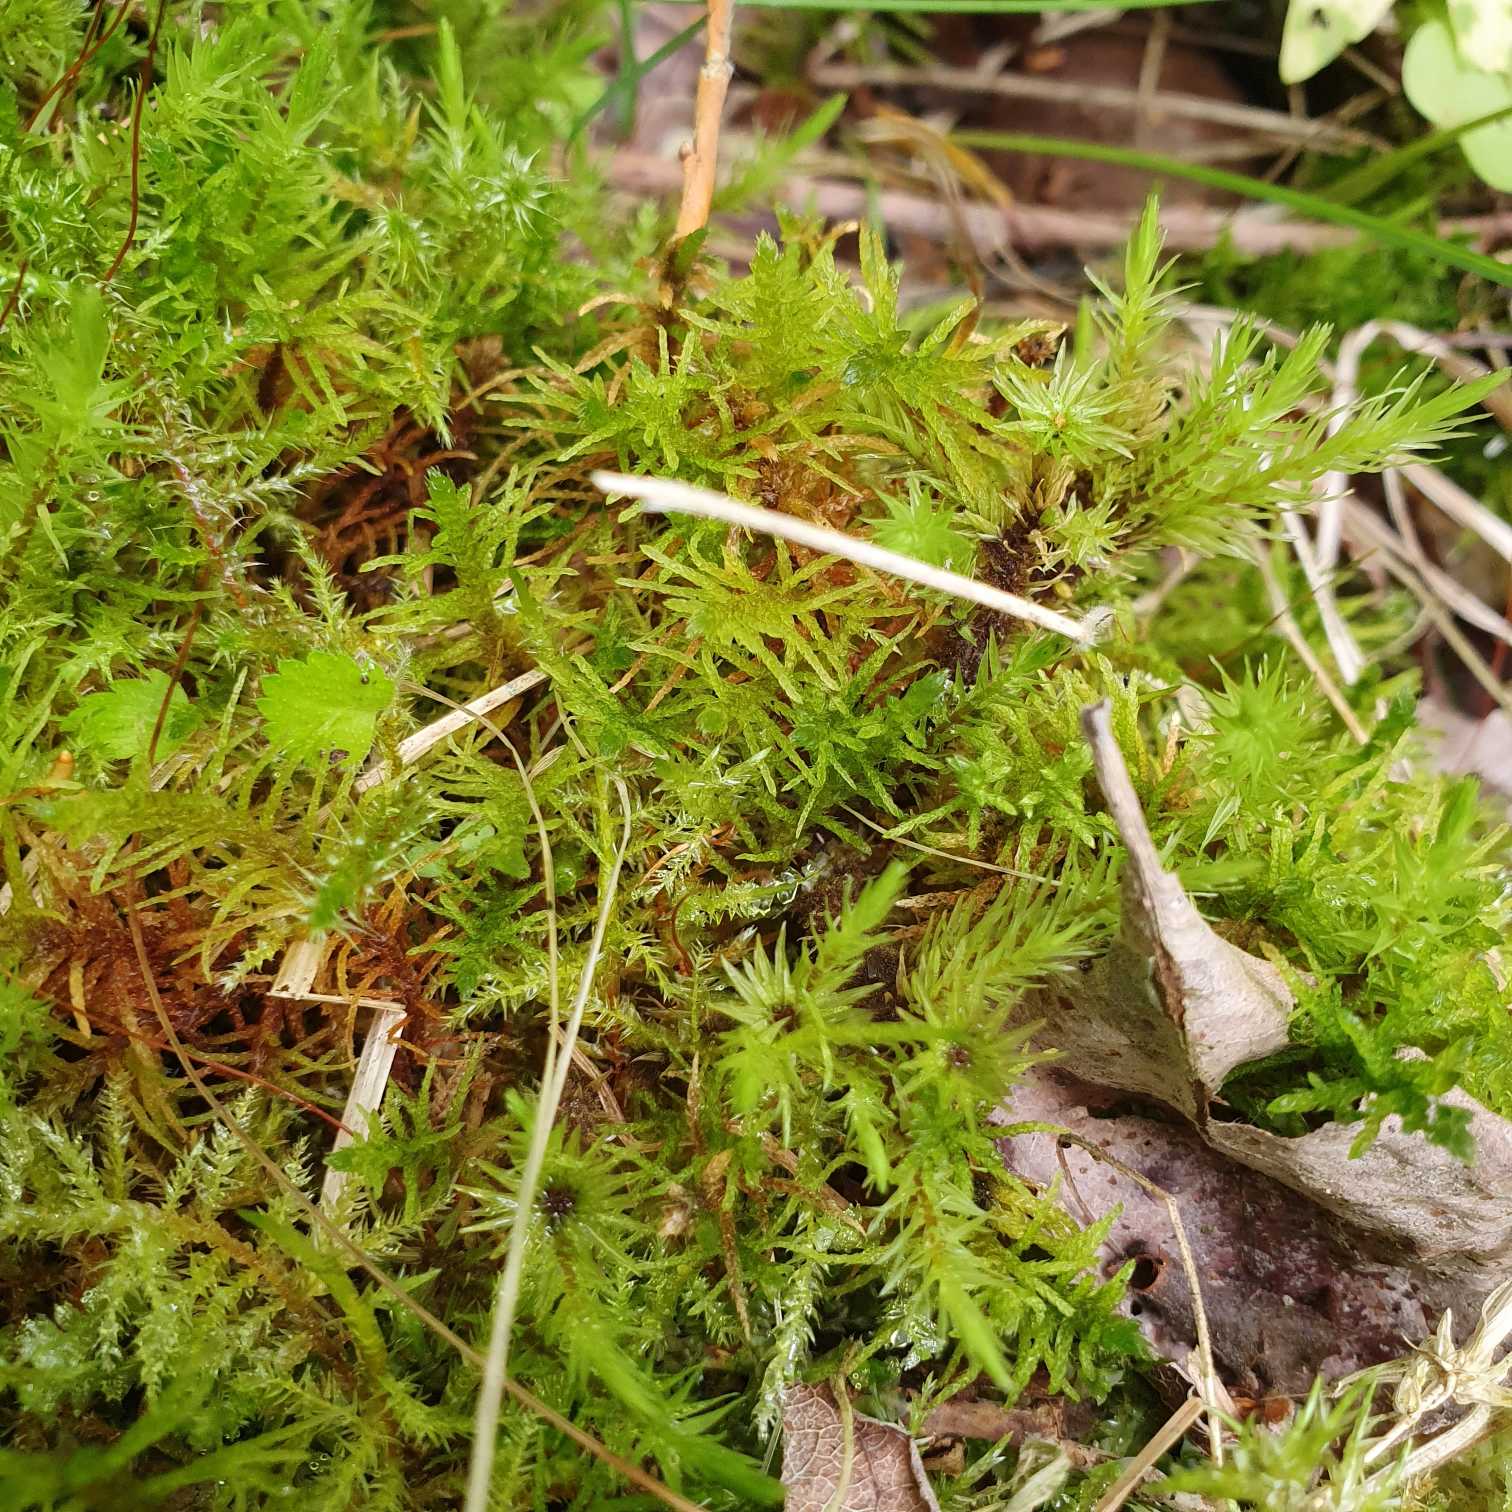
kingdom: Plantae
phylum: Bryophyta
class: Bryopsida
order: Hypnales
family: Helodiaceae
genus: Helodium
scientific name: Helodium blandowii
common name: Kær-gyldenmos
